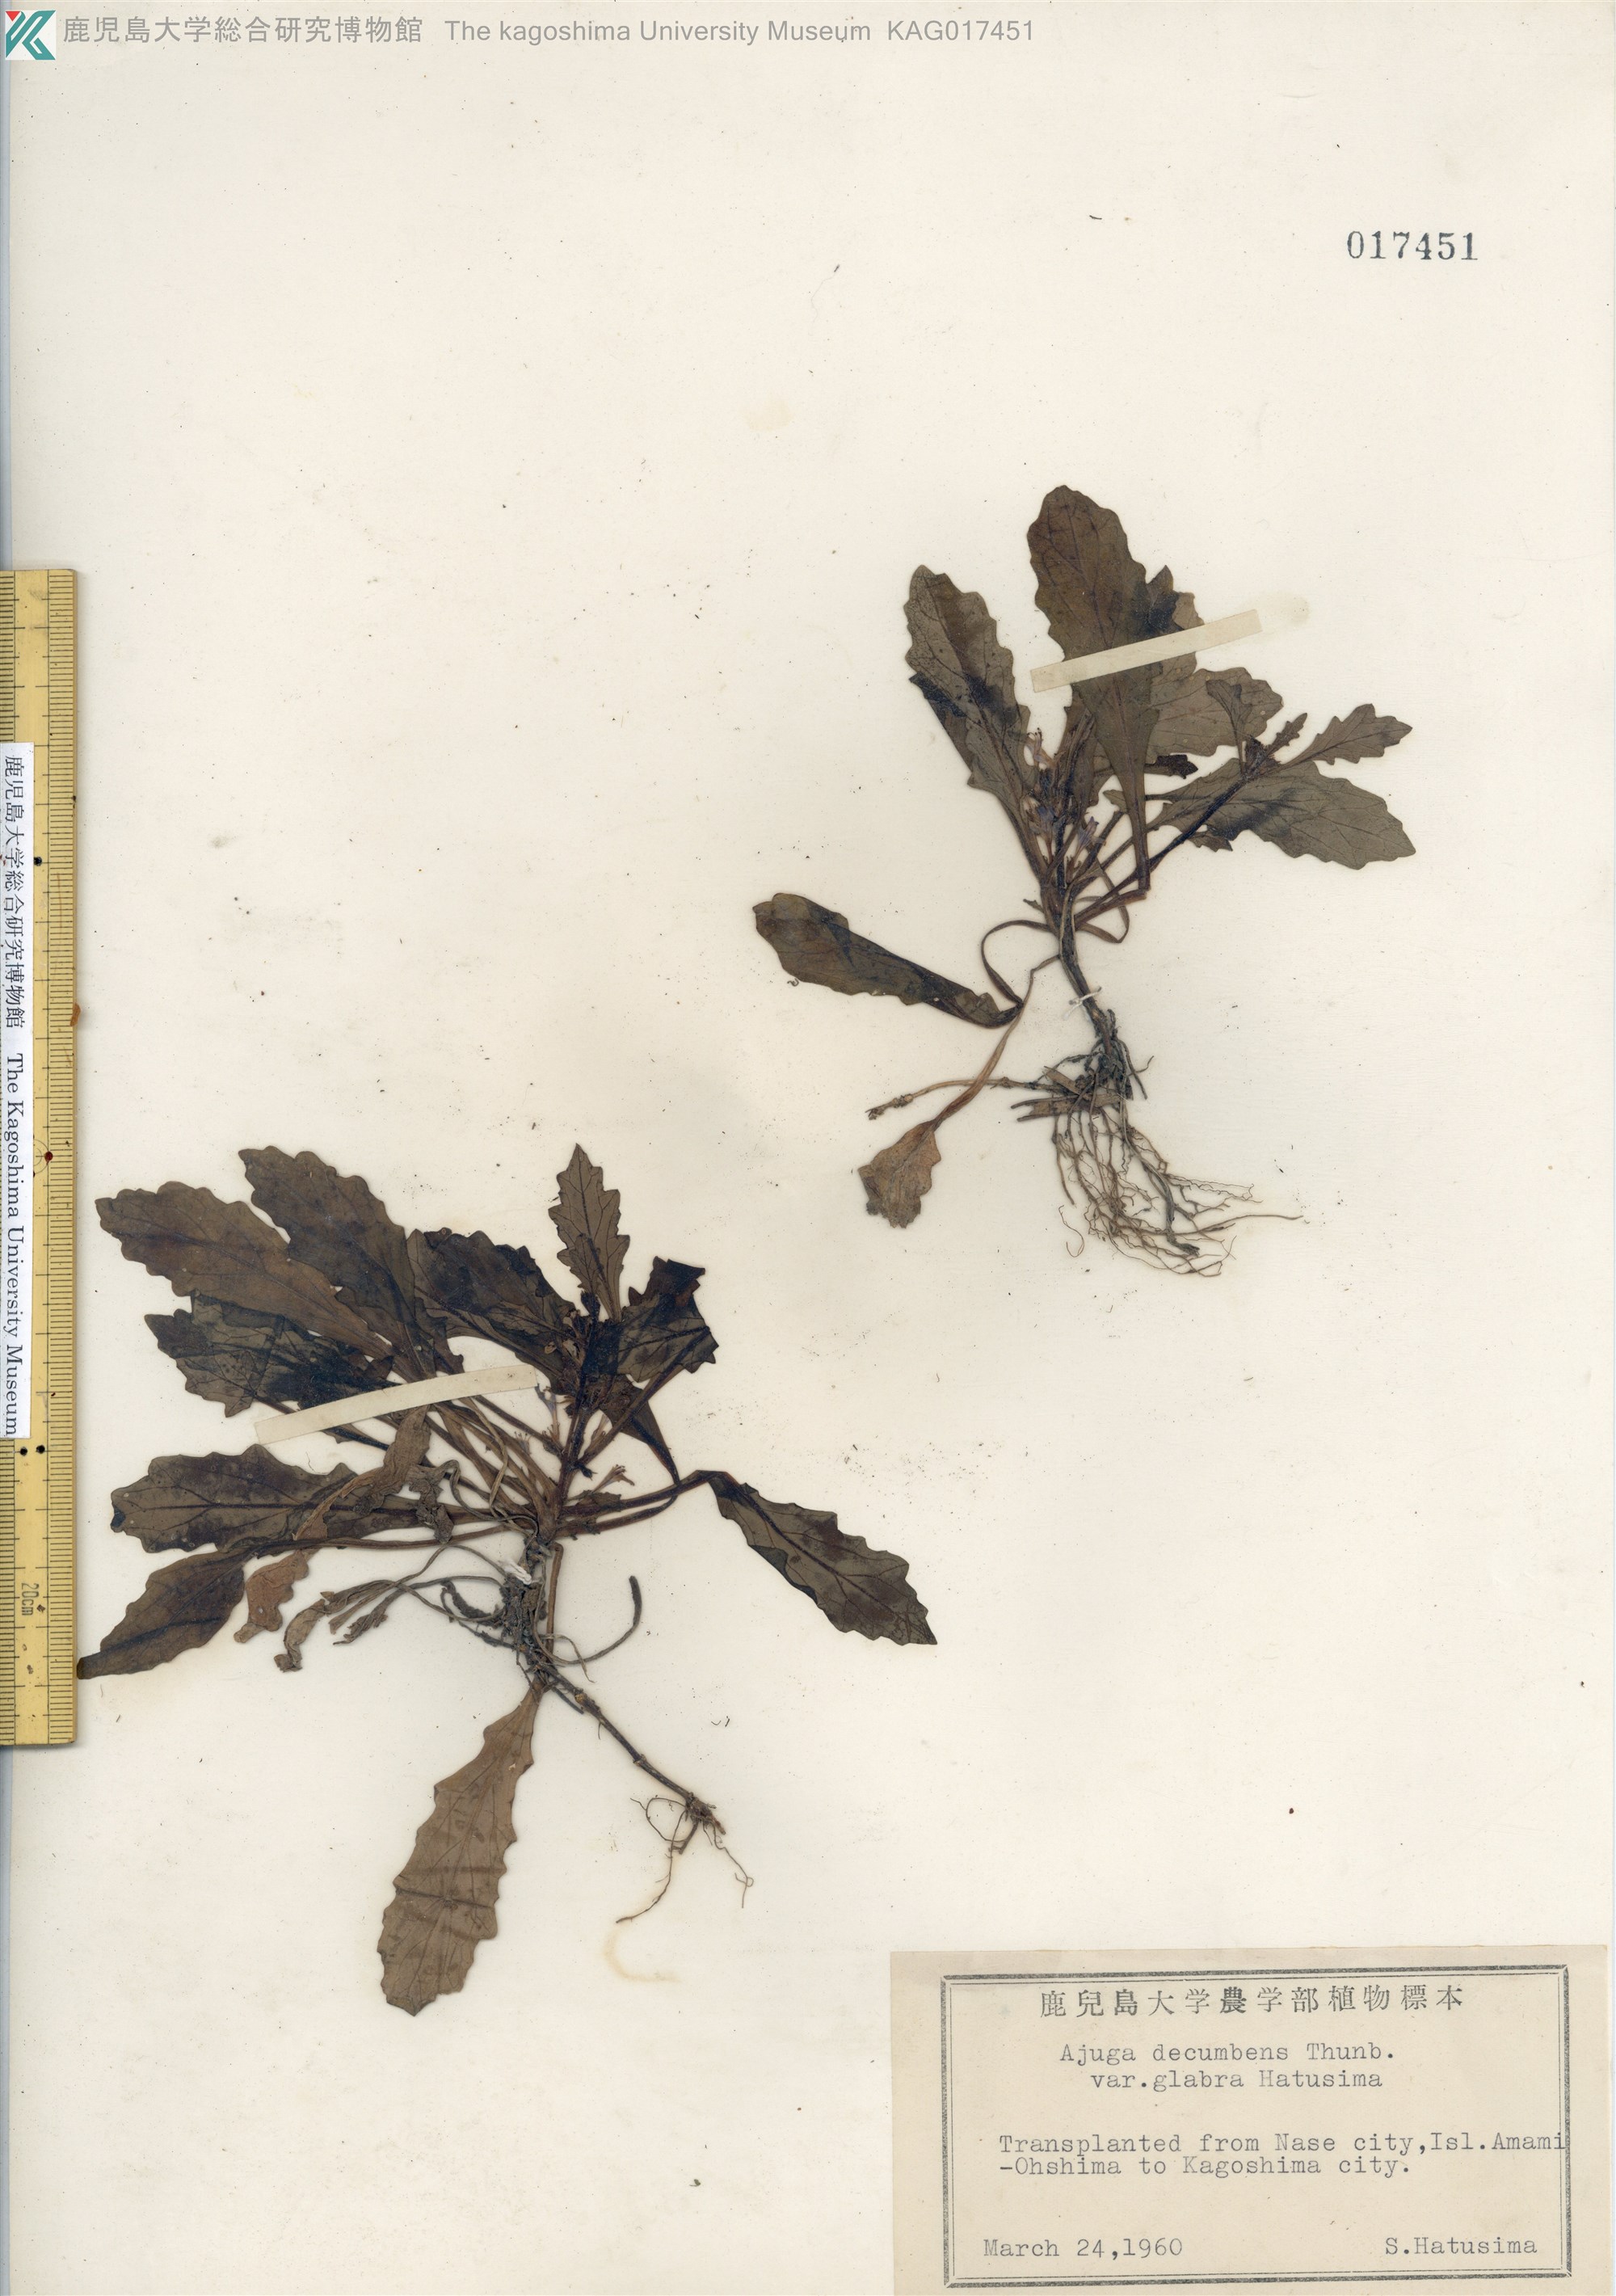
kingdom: Plantae
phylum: Tracheophyta
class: Magnoliopsida
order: Lamiales
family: Lamiaceae
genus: Ajuga
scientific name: Ajuga decumbens
